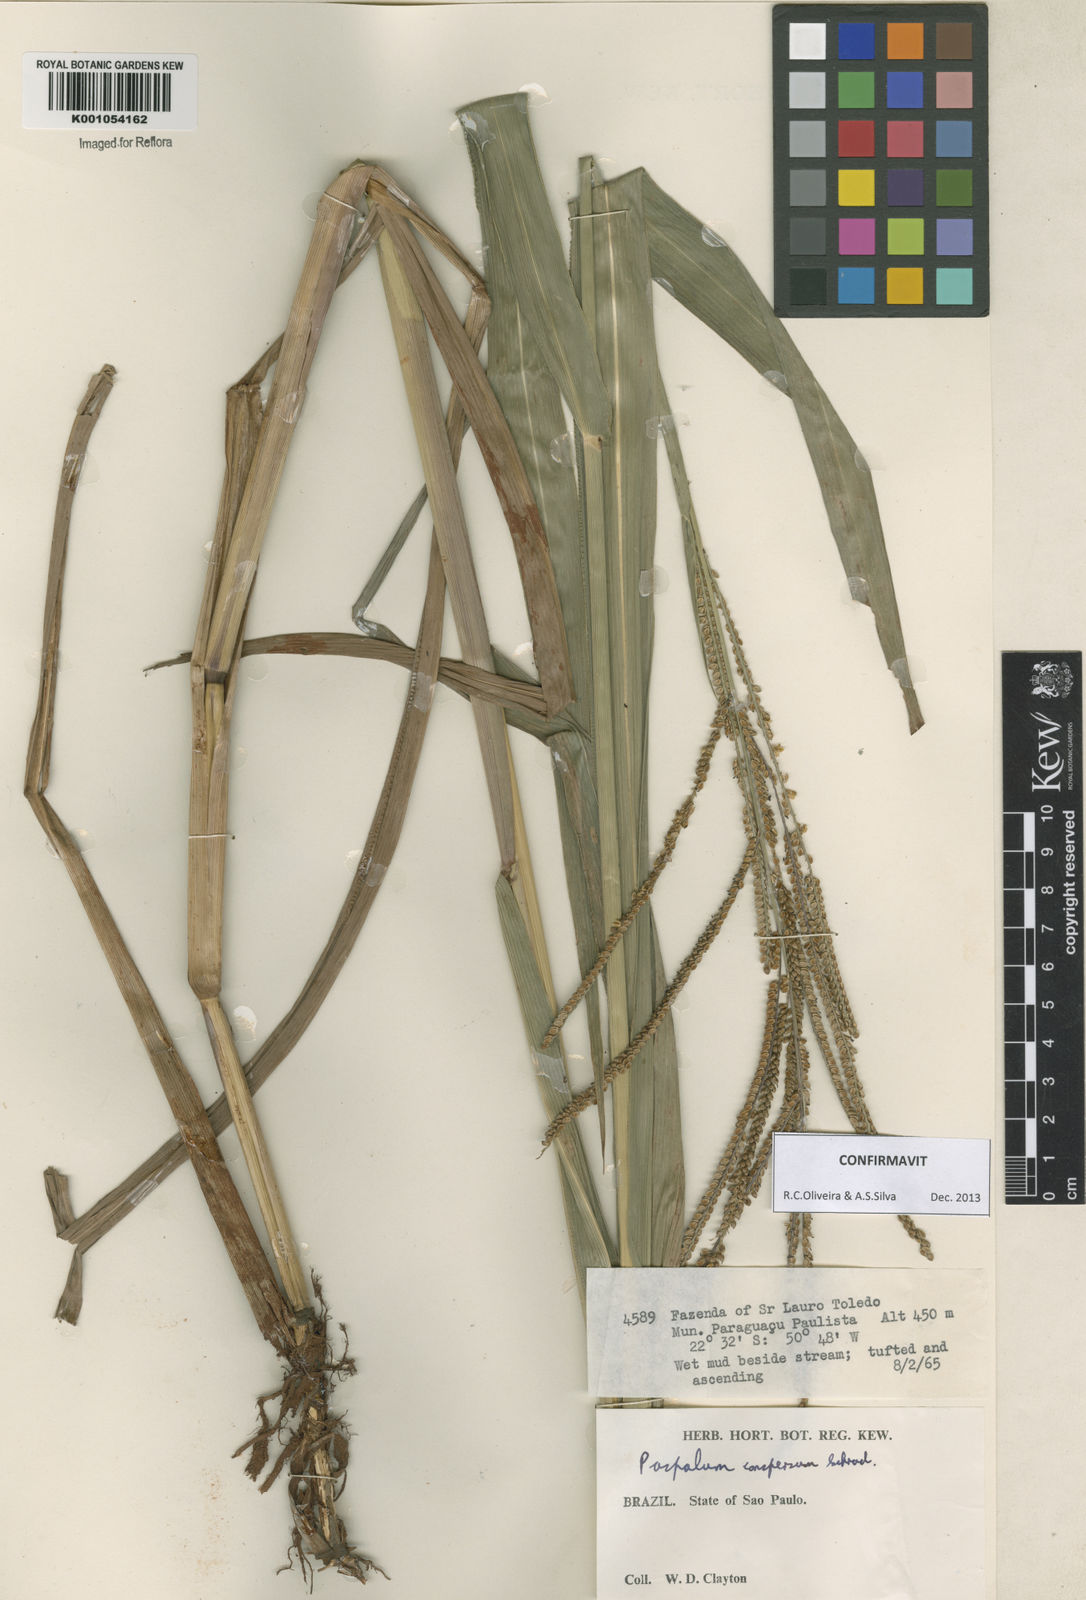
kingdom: Plantae
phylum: Tracheophyta
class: Liliopsida
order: Poales
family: Poaceae
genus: Paspalum
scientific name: Paspalum conspersum
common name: Scattered paspalum
